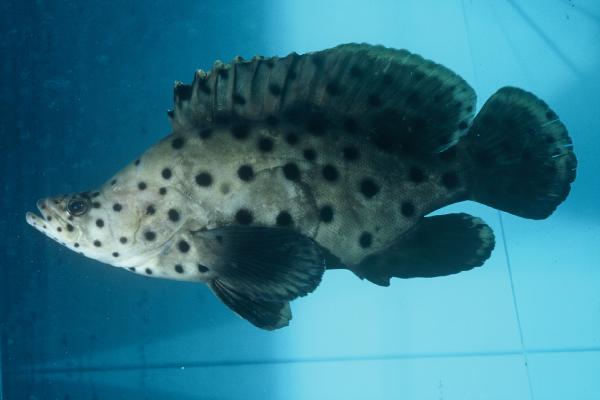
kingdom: Animalia
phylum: Chordata
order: Perciformes
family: Serranidae
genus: Cromileptes
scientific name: Cromileptes altivelis
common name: Humpback grouper
